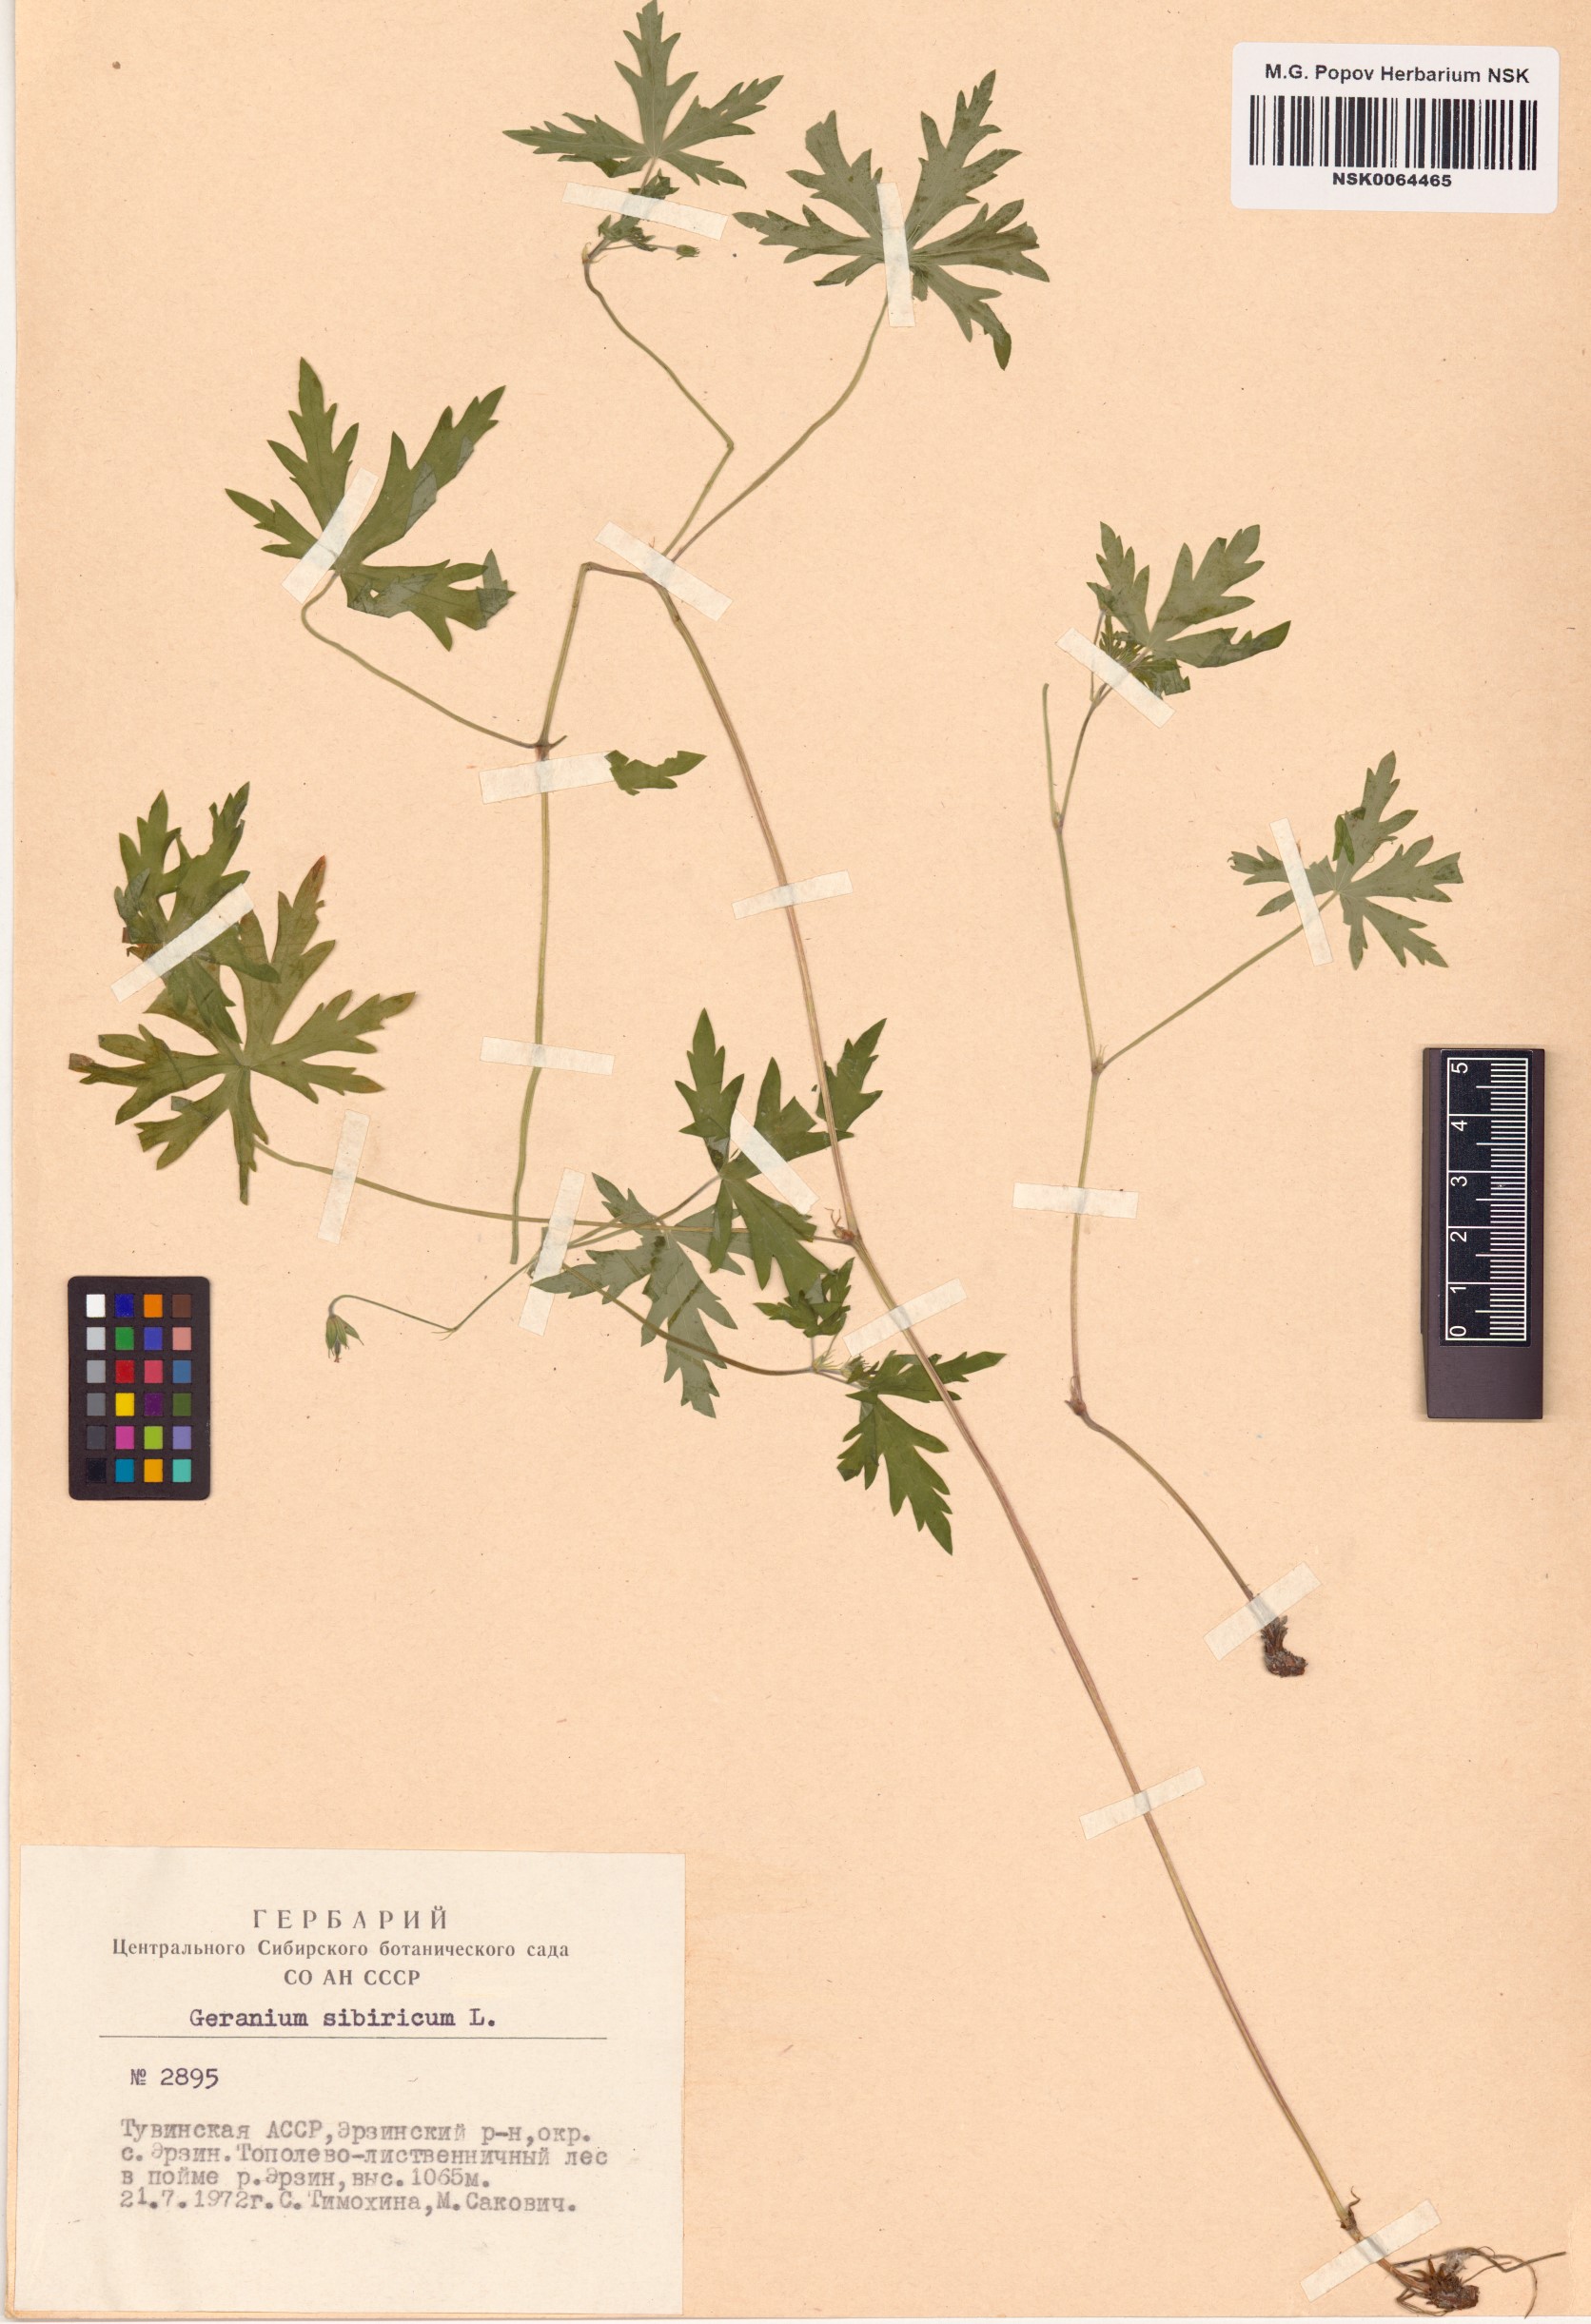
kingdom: Plantae
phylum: Tracheophyta
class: Magnoliopsida
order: Geraniales
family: Geraniaceae
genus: Geranium
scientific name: Geranium sibiricum
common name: Siberian crane's-bill
